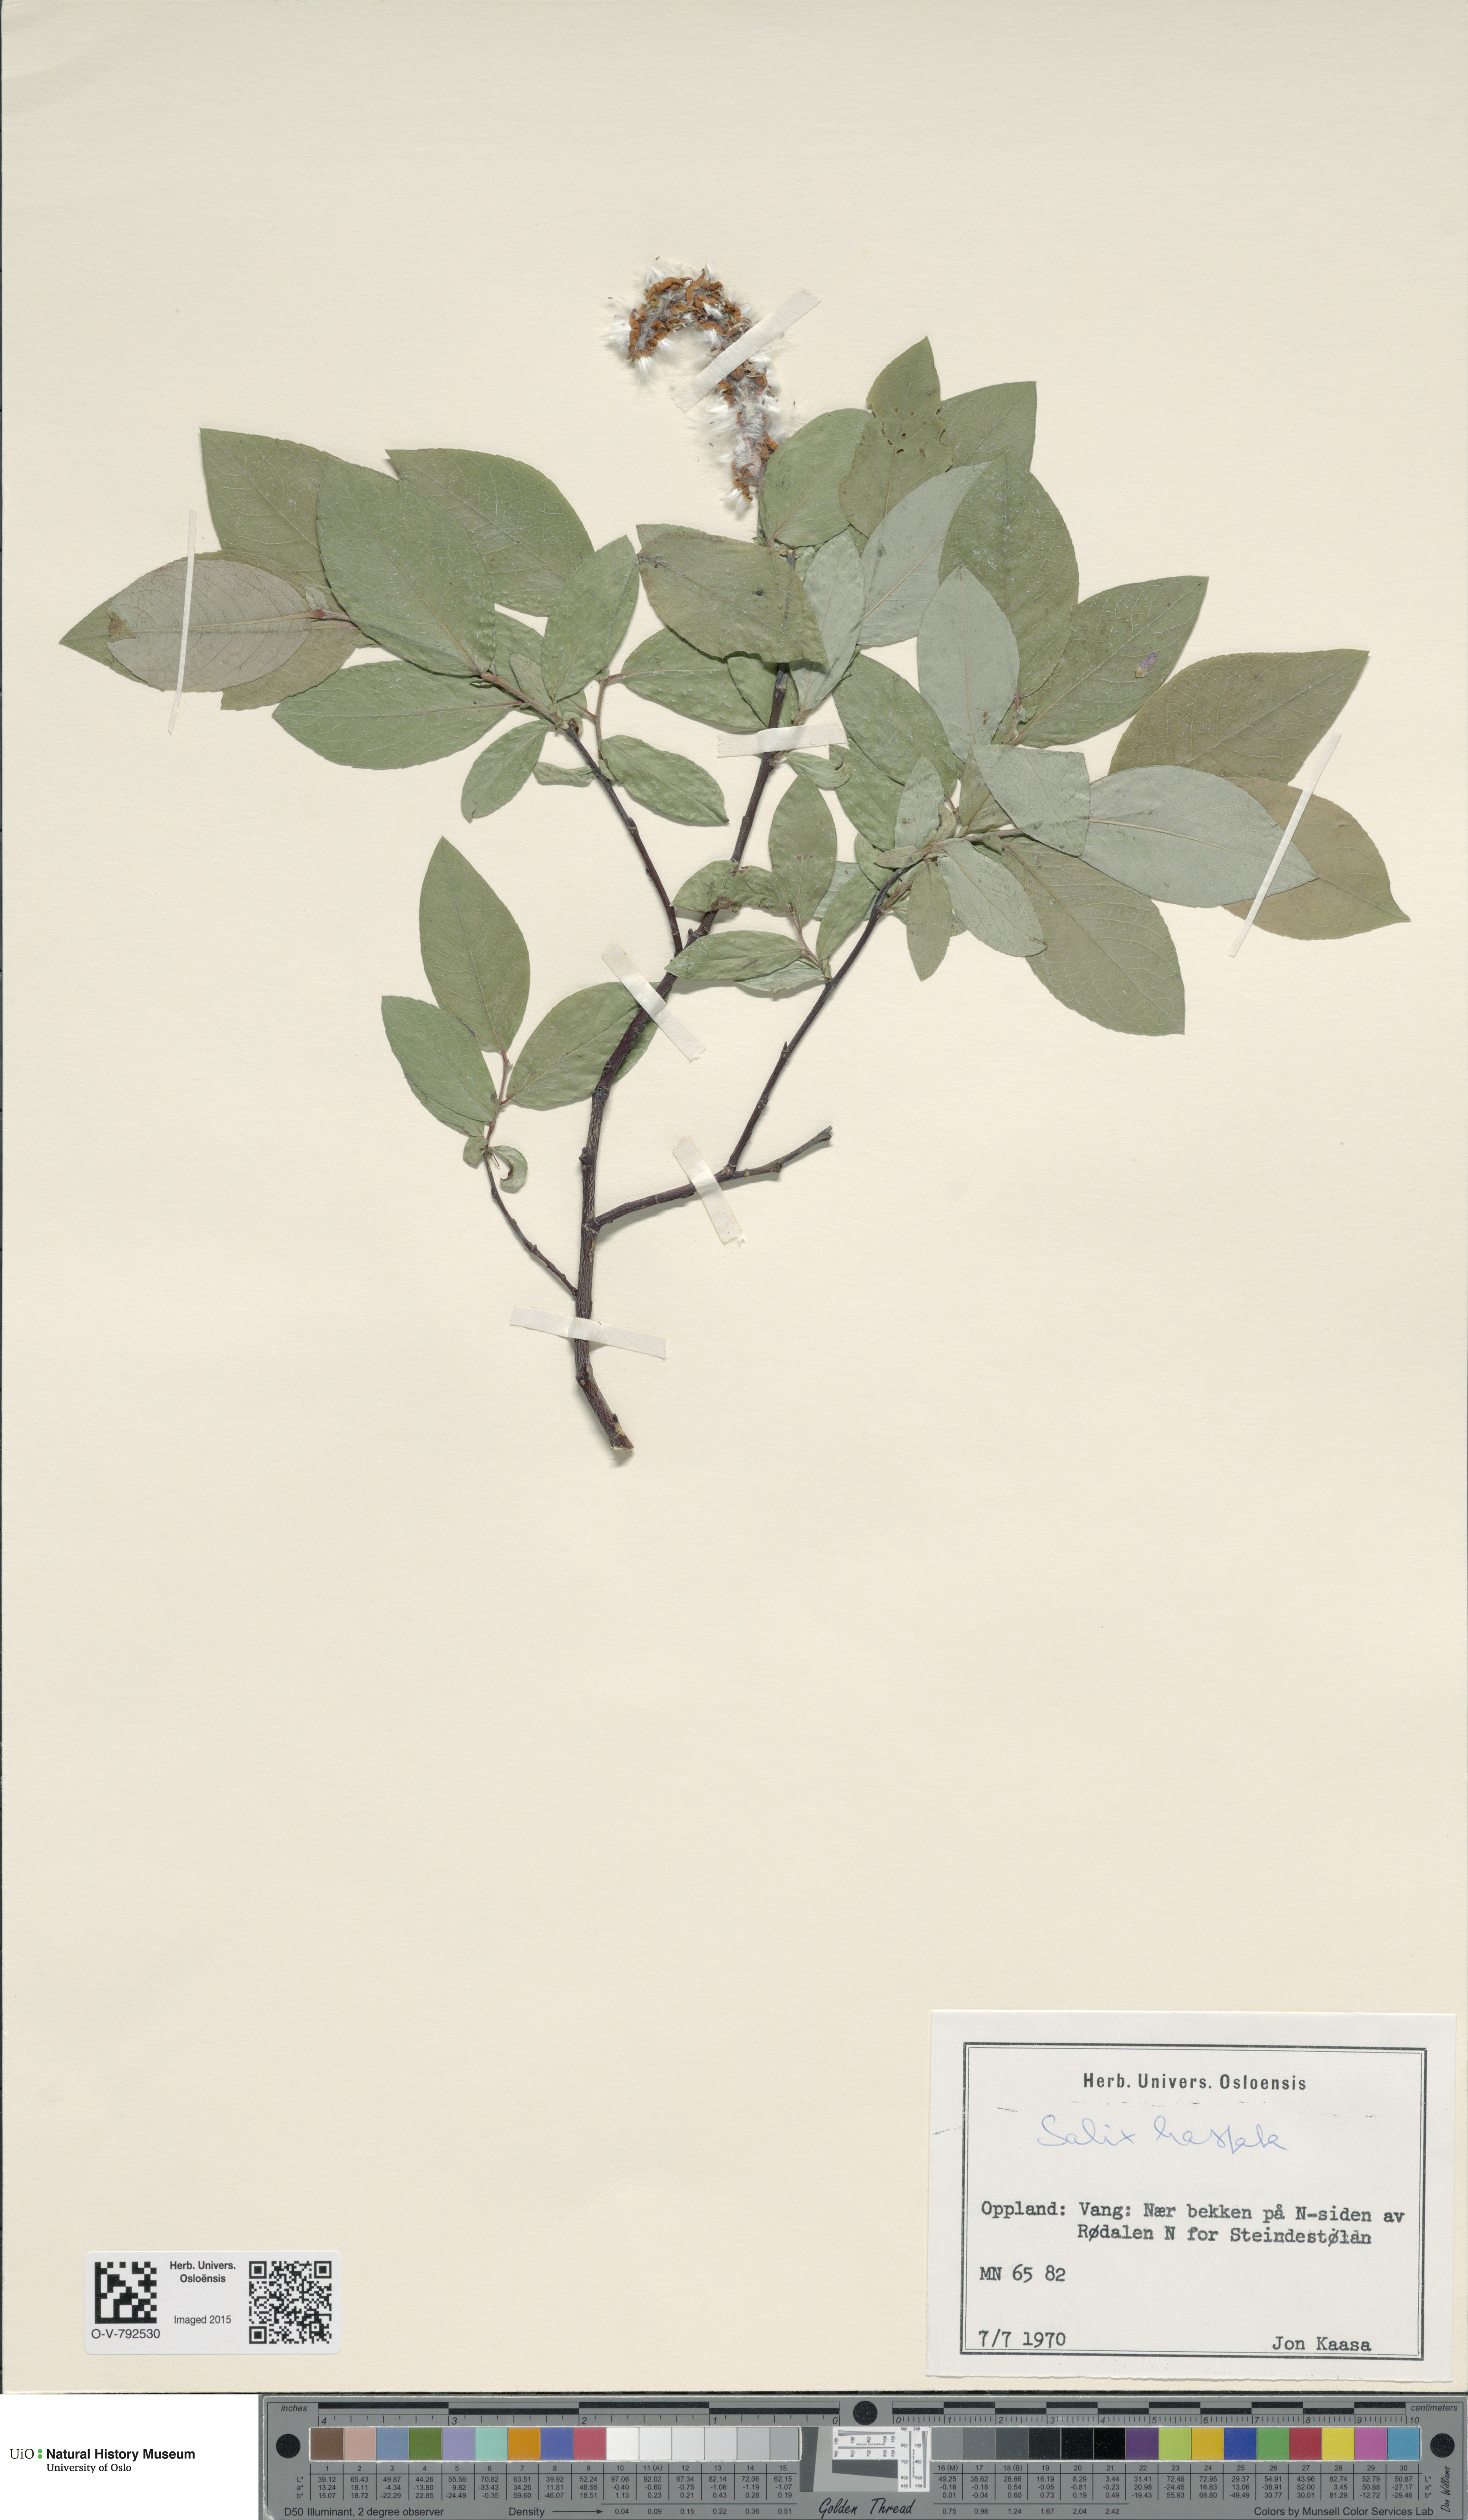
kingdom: Plantae
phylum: Tracheophyta
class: Magnoliopsida
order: Malpighiales
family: Salicaceae
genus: Salix
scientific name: Salix hastata
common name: Halberd willow
